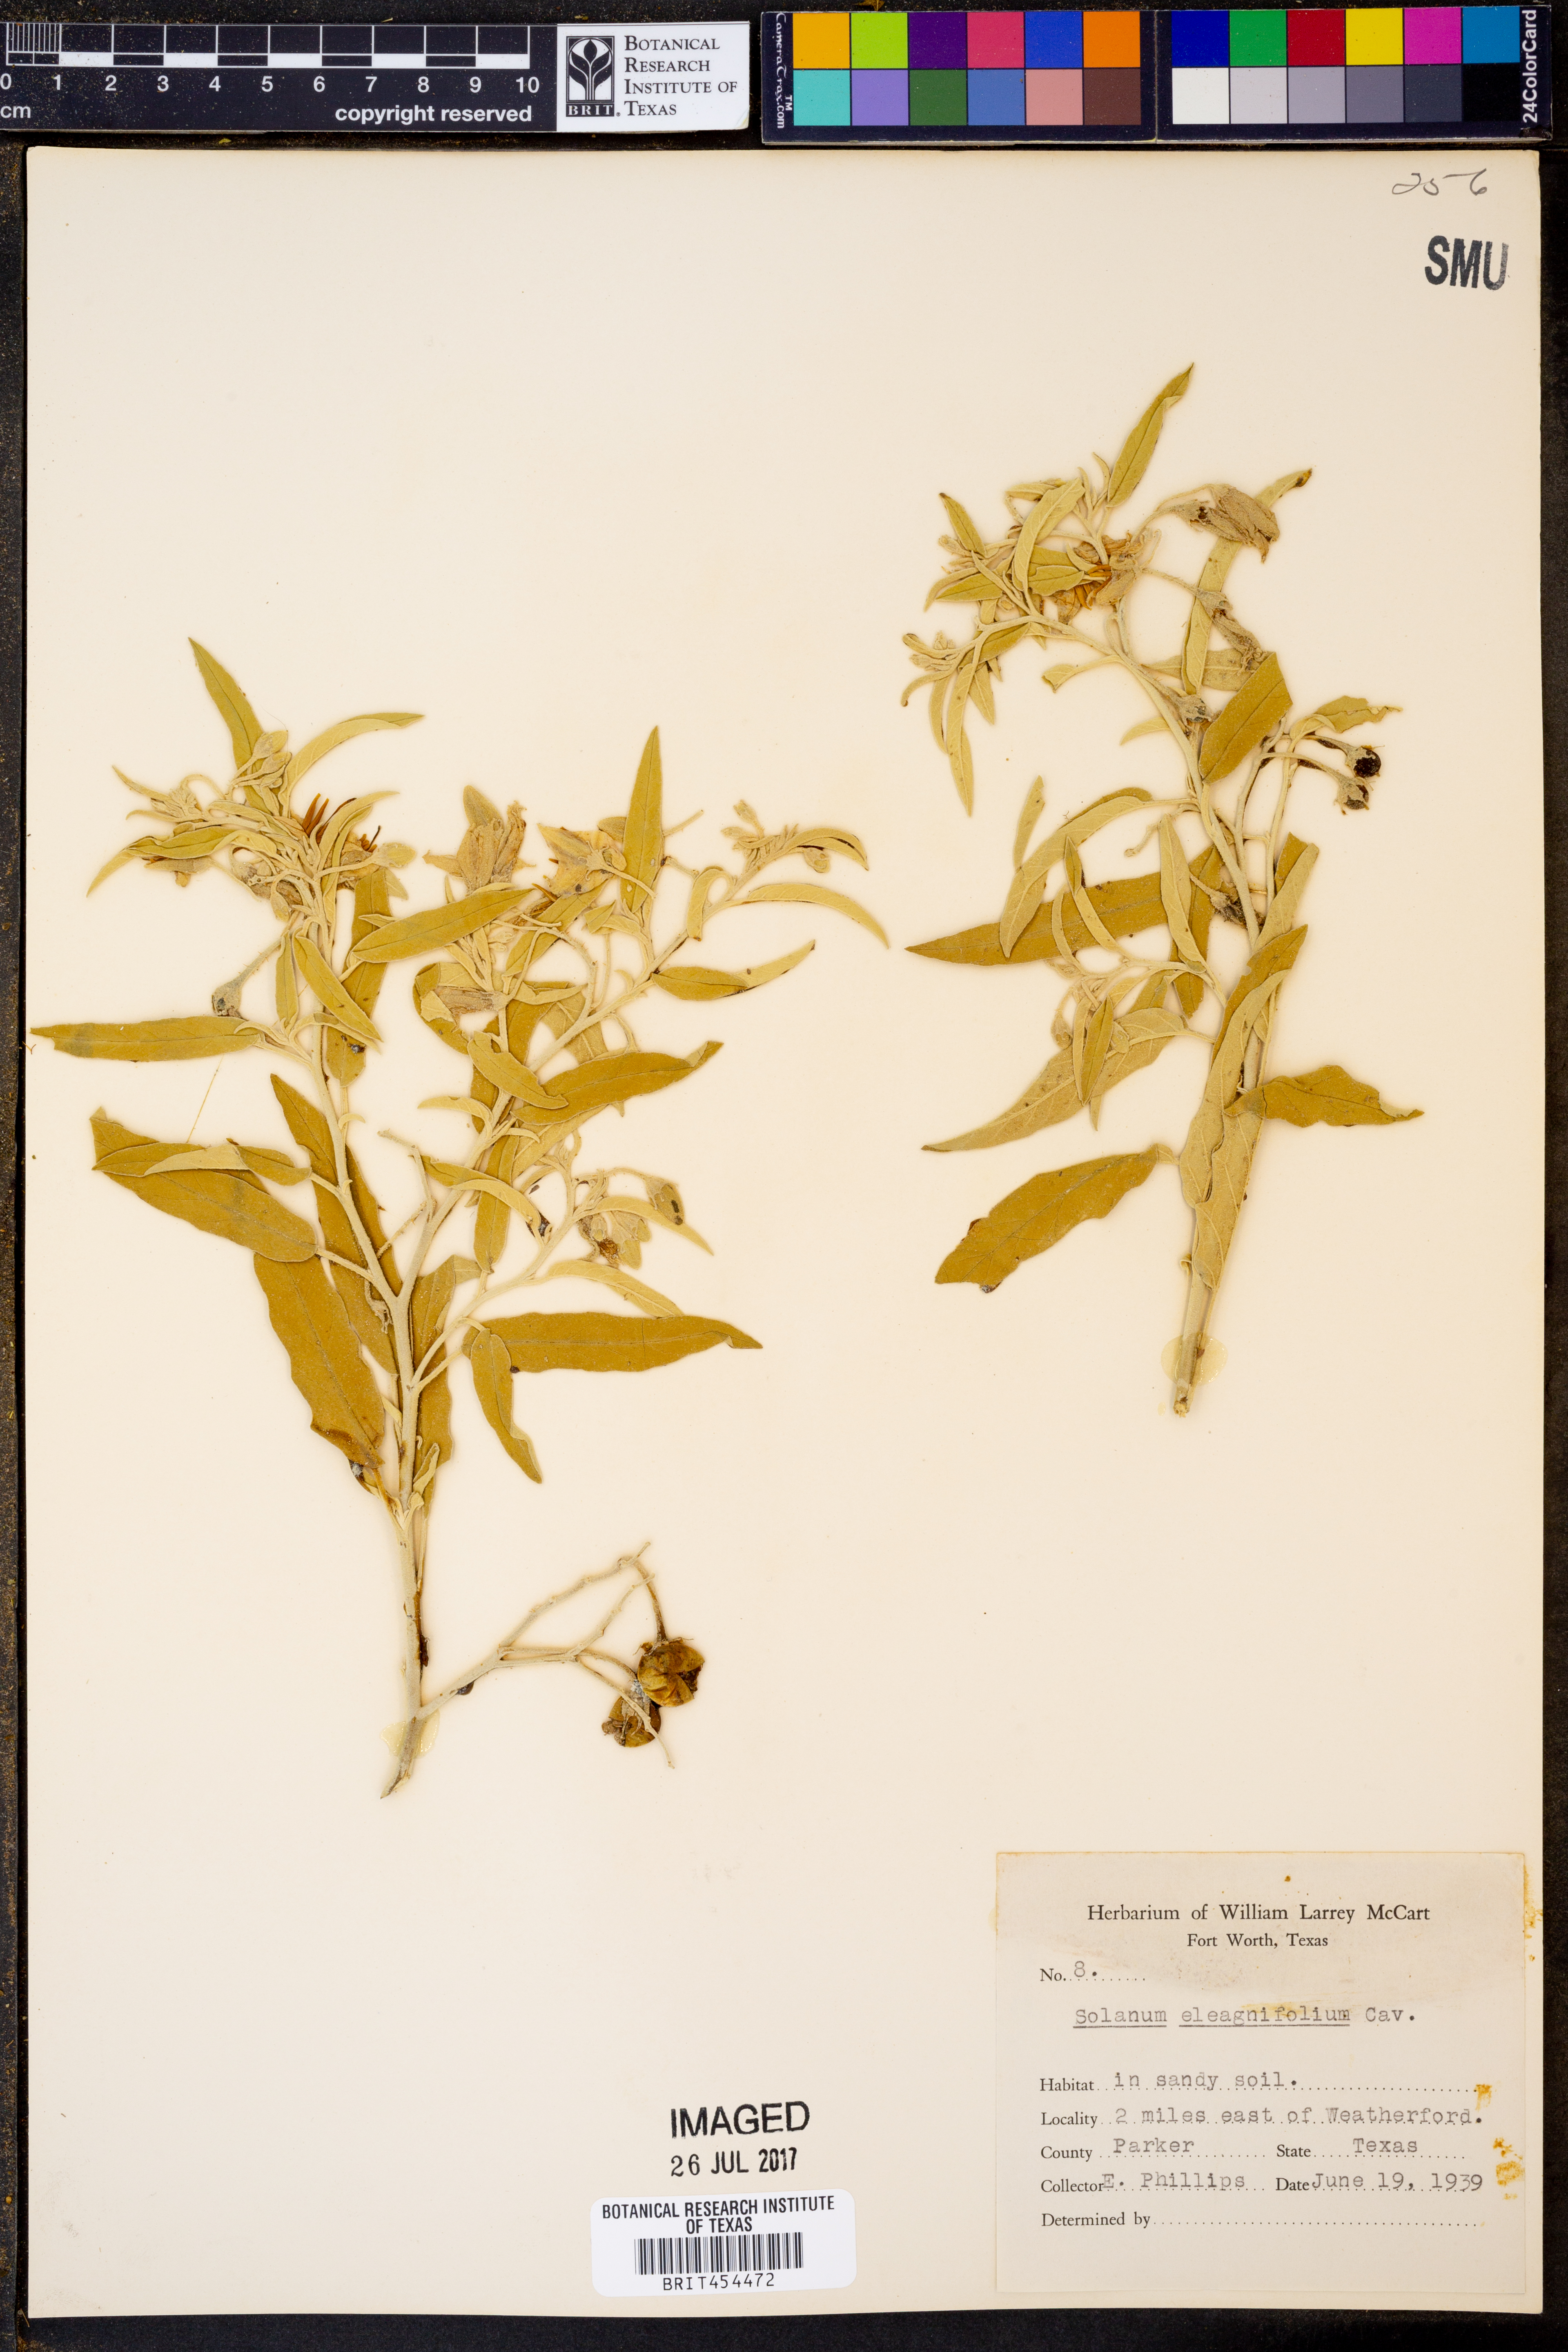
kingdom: Plantae
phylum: Tracheophyta
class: Magnoliopsida
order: Solanales
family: Solanaceae
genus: Solanum
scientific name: Solanum elaeagnifolium
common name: Silverleaf nightshade
